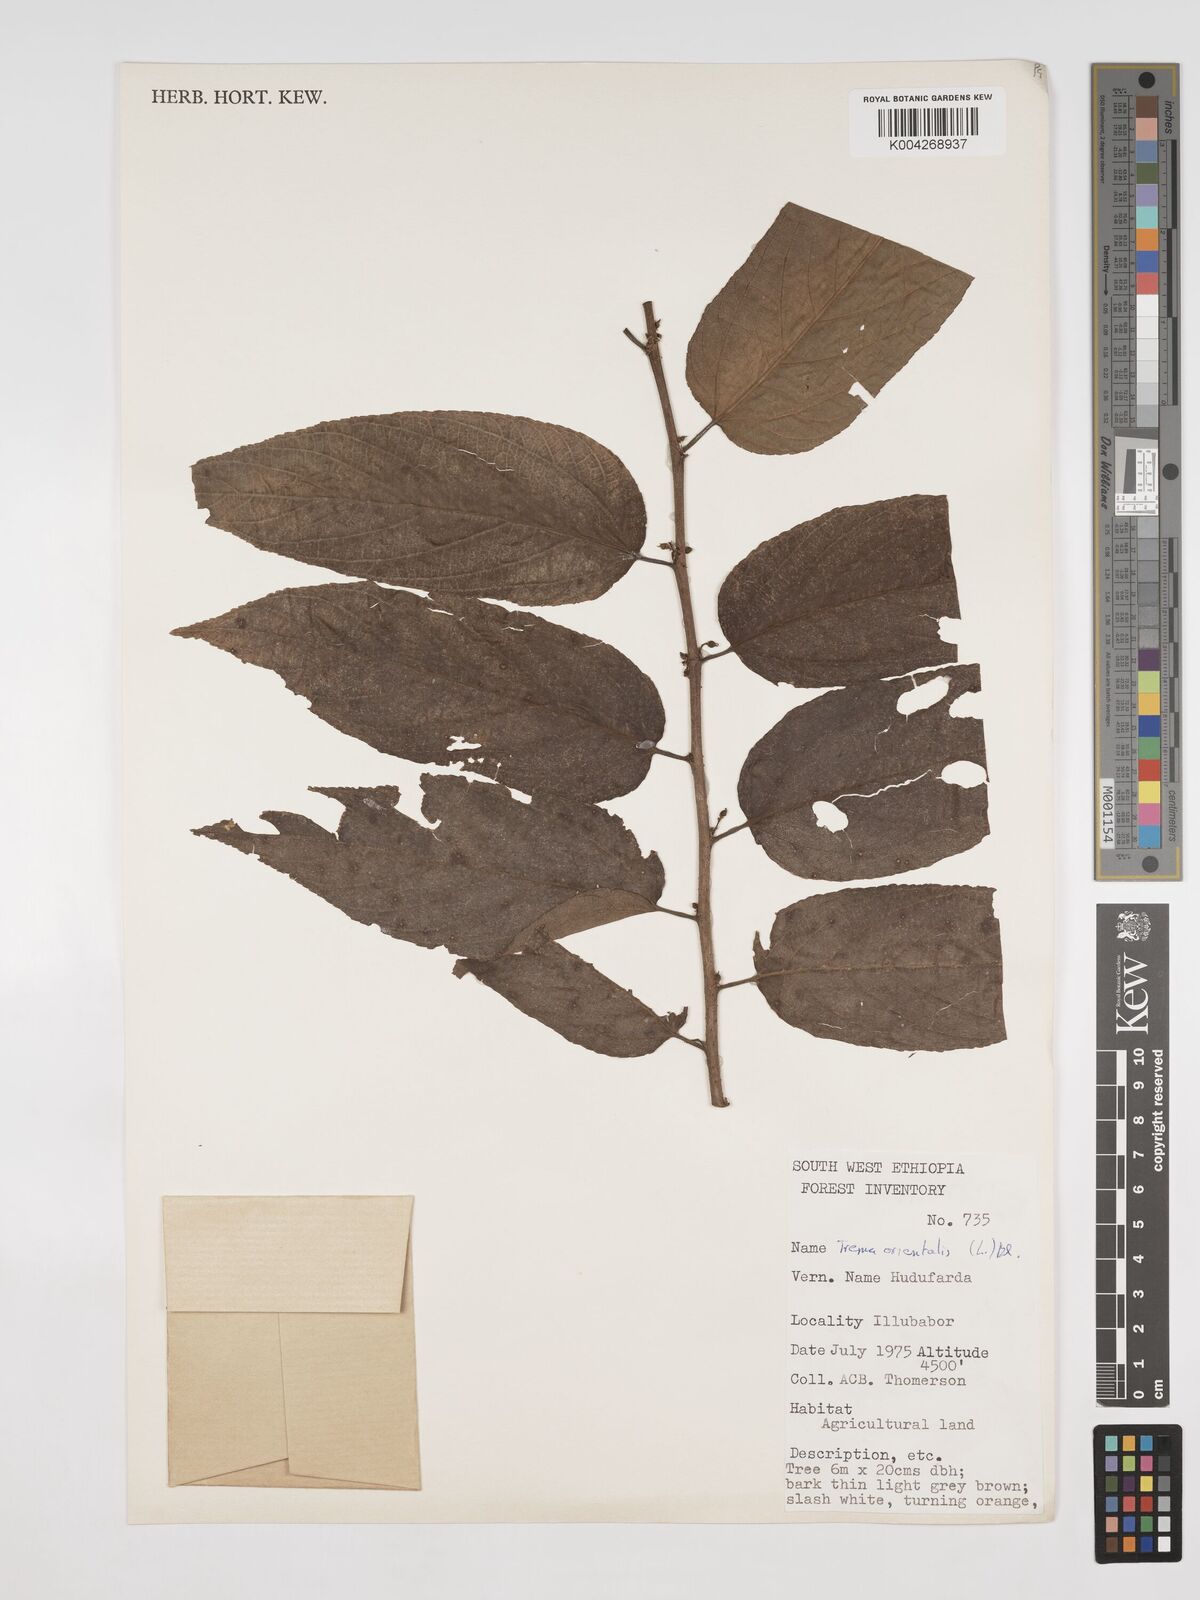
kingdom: Plantae
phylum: Tracheophyta
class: Magnoliopsida
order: Rosales
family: Cannabaceae
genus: Trema
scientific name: Trema orientale
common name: Indian charcoal tree
